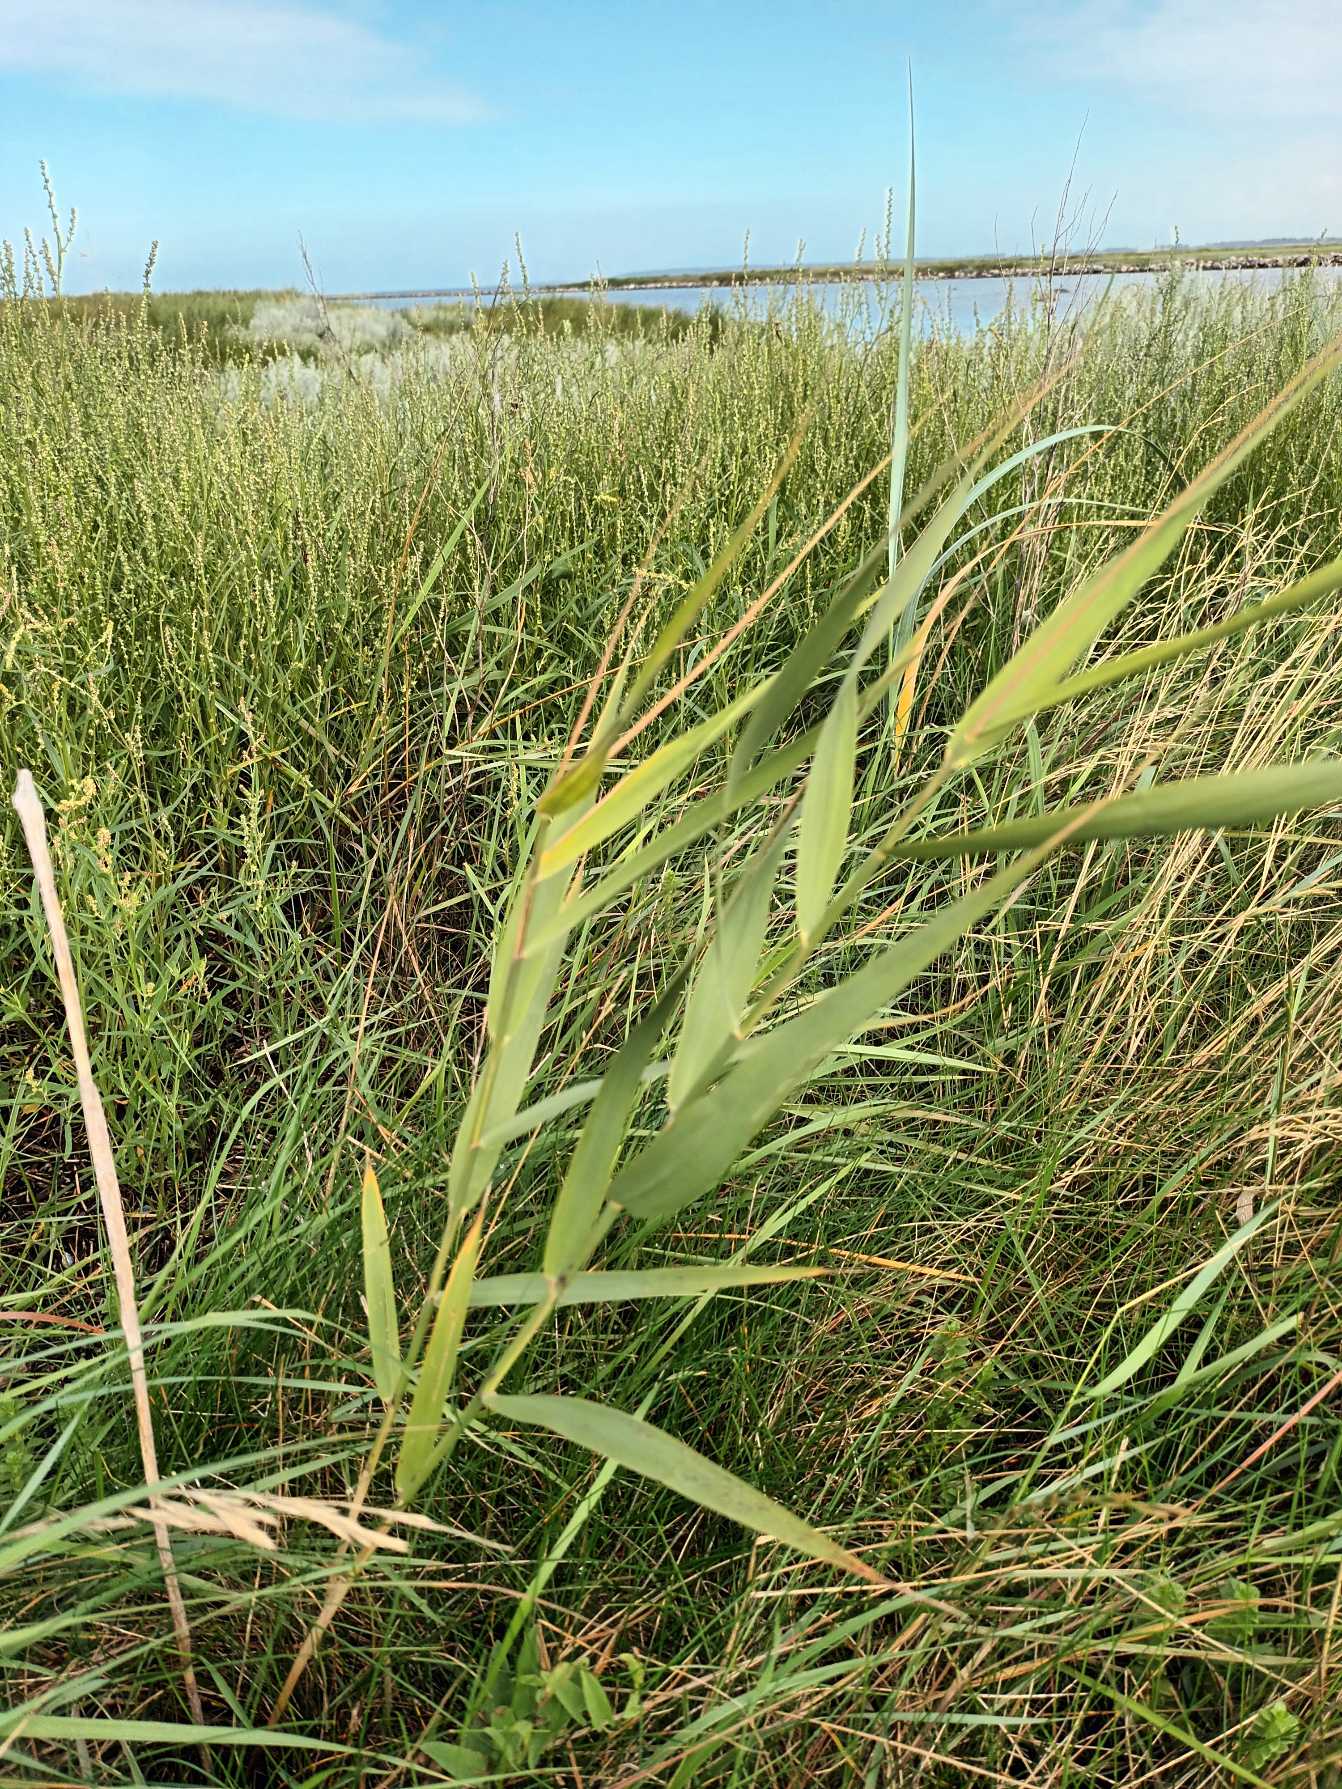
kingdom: Plantae
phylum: Tracheophyta
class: Liliopsida
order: Poales
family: Poaceae
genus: Phragmites
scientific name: Phragmites australis
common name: Tagrør
